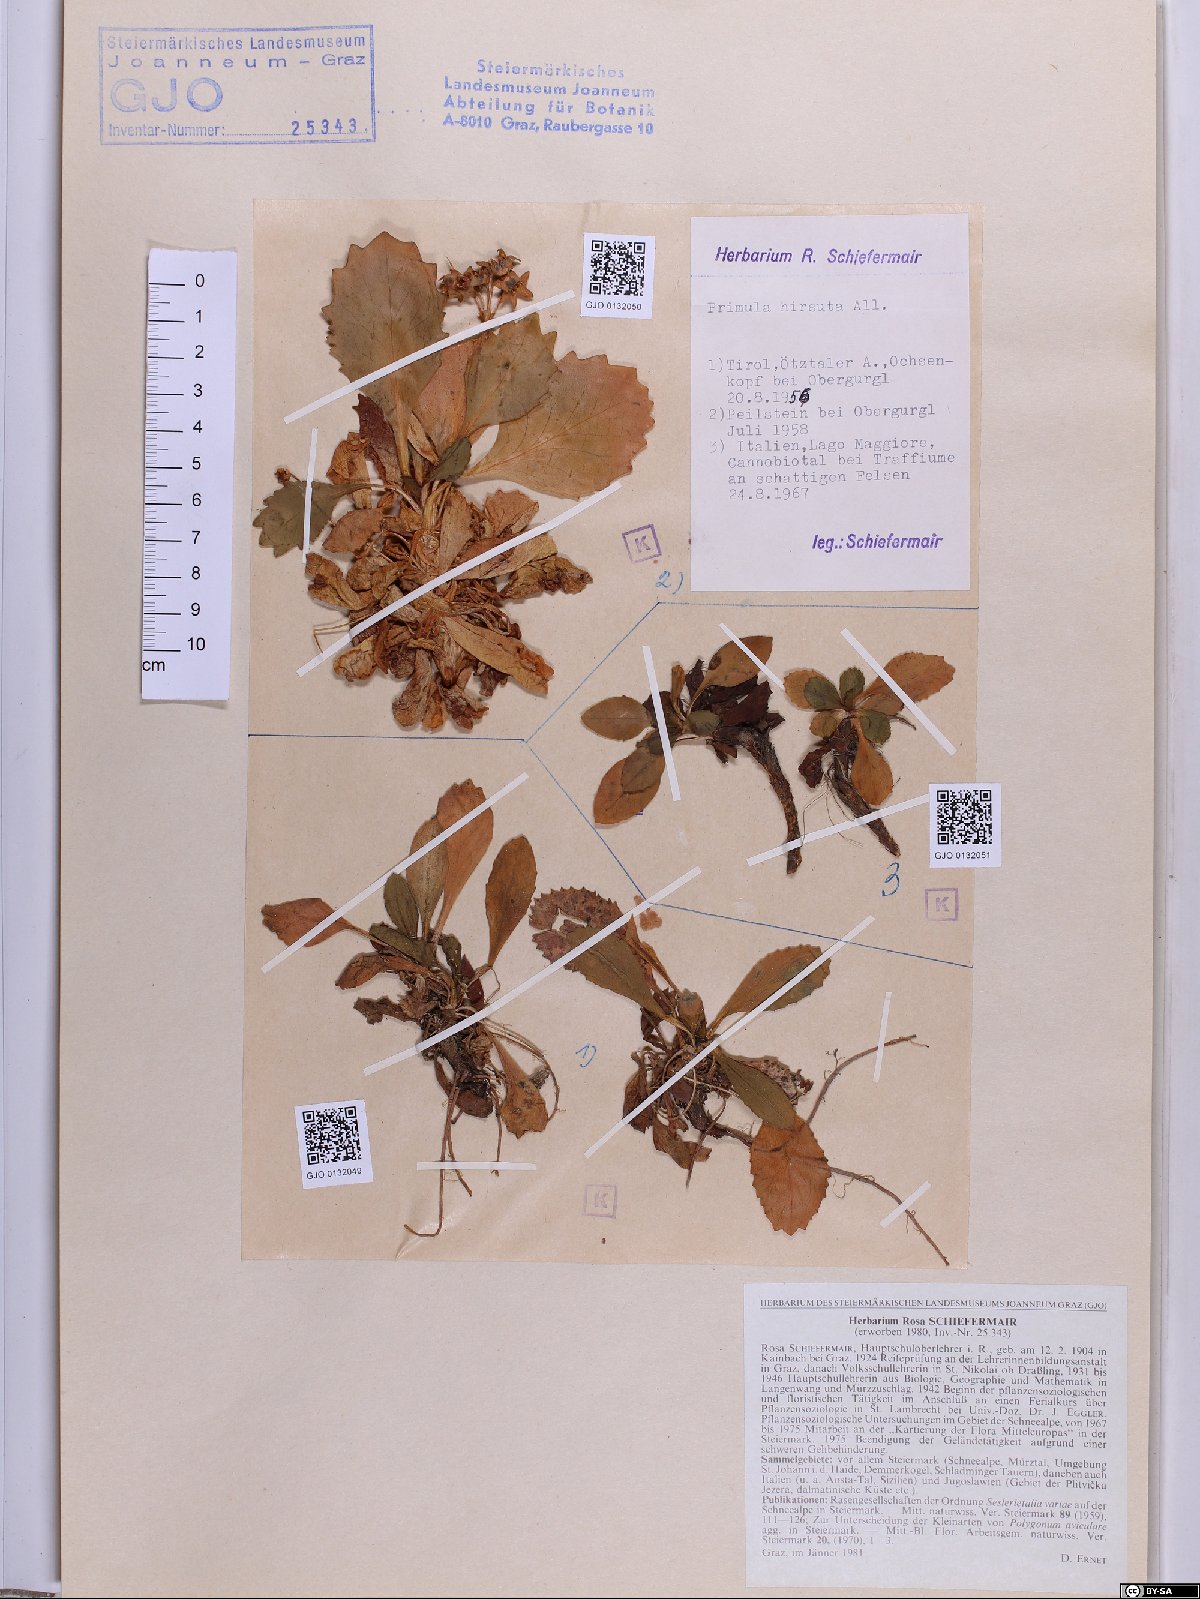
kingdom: Plantae
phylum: Tracheophyta
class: Magnoliopsida
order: Ericales
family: Primulaceae
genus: Primula
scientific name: Primula hirsuta
